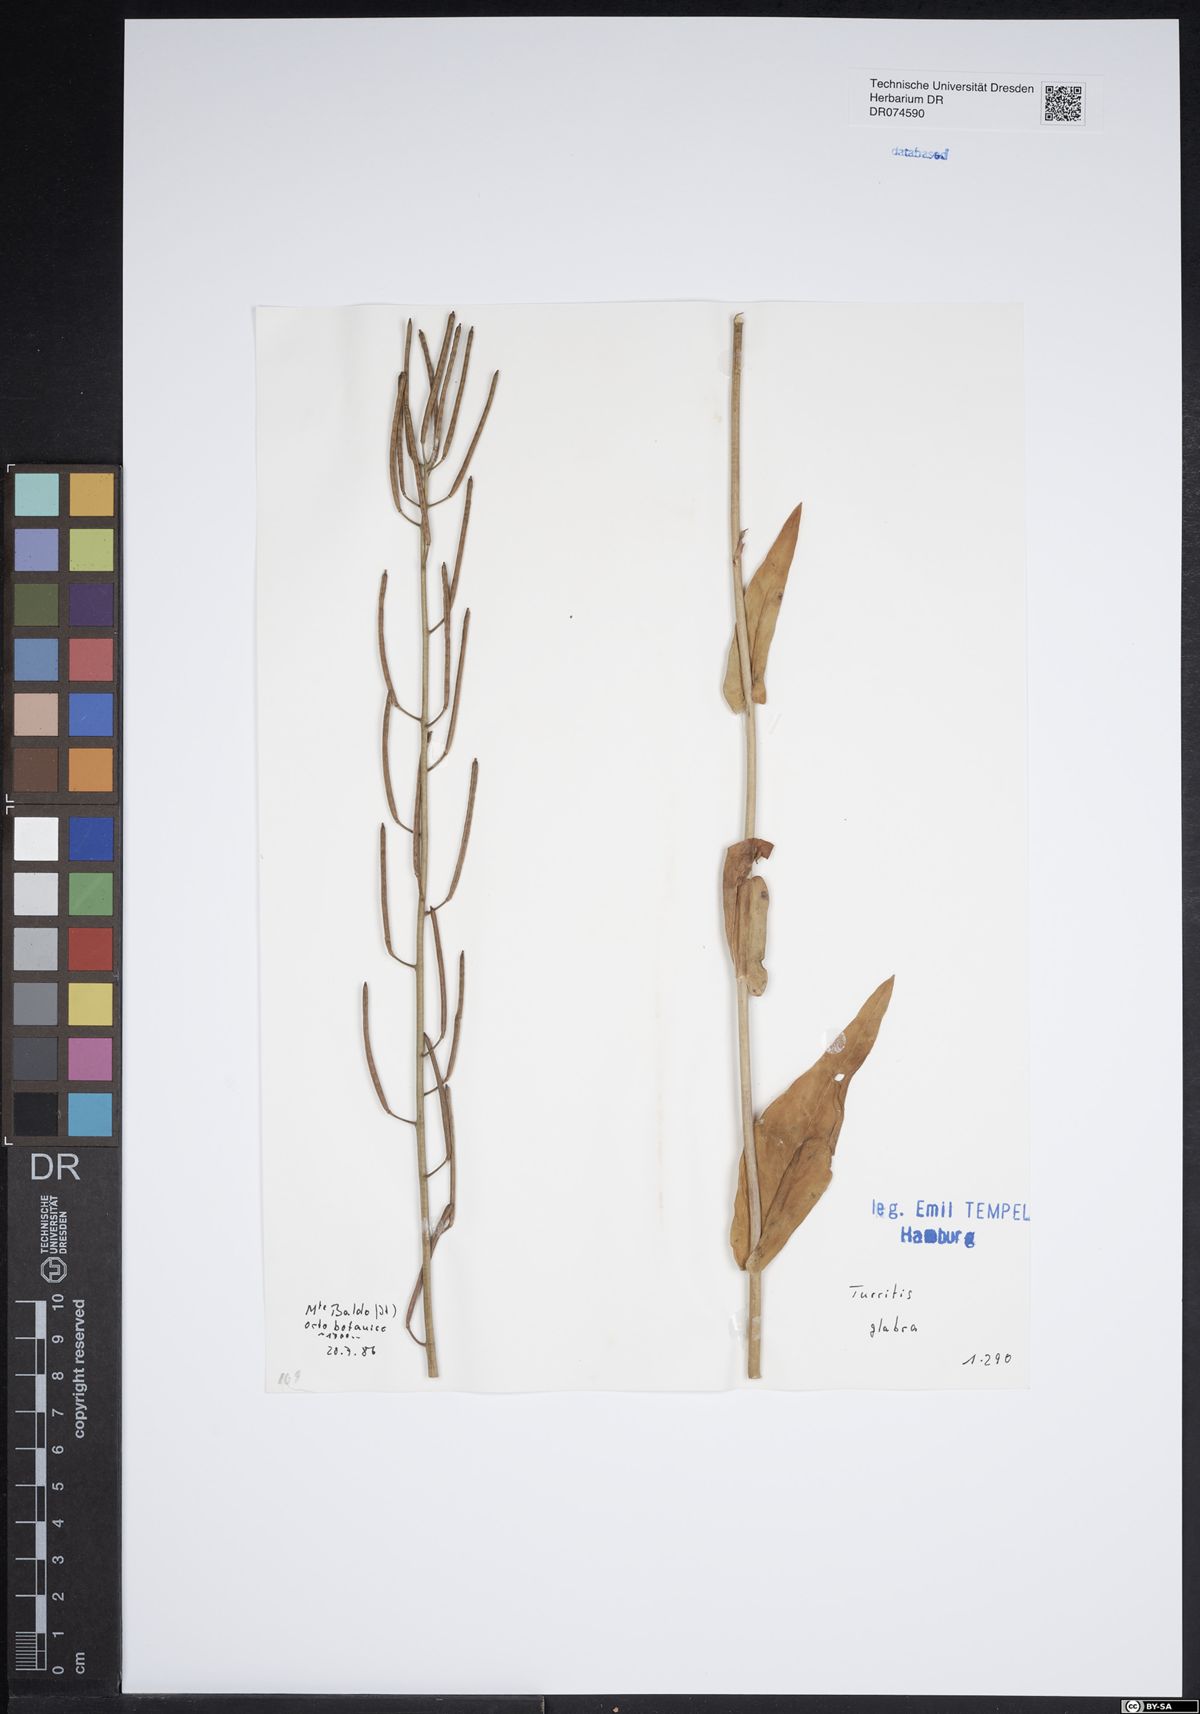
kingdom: Plantae
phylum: Tracheophyta
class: Magnoliopsida
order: Brassicales
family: Brassicaceae
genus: Turritis
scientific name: Turritis glabra
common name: Tower rockcress
